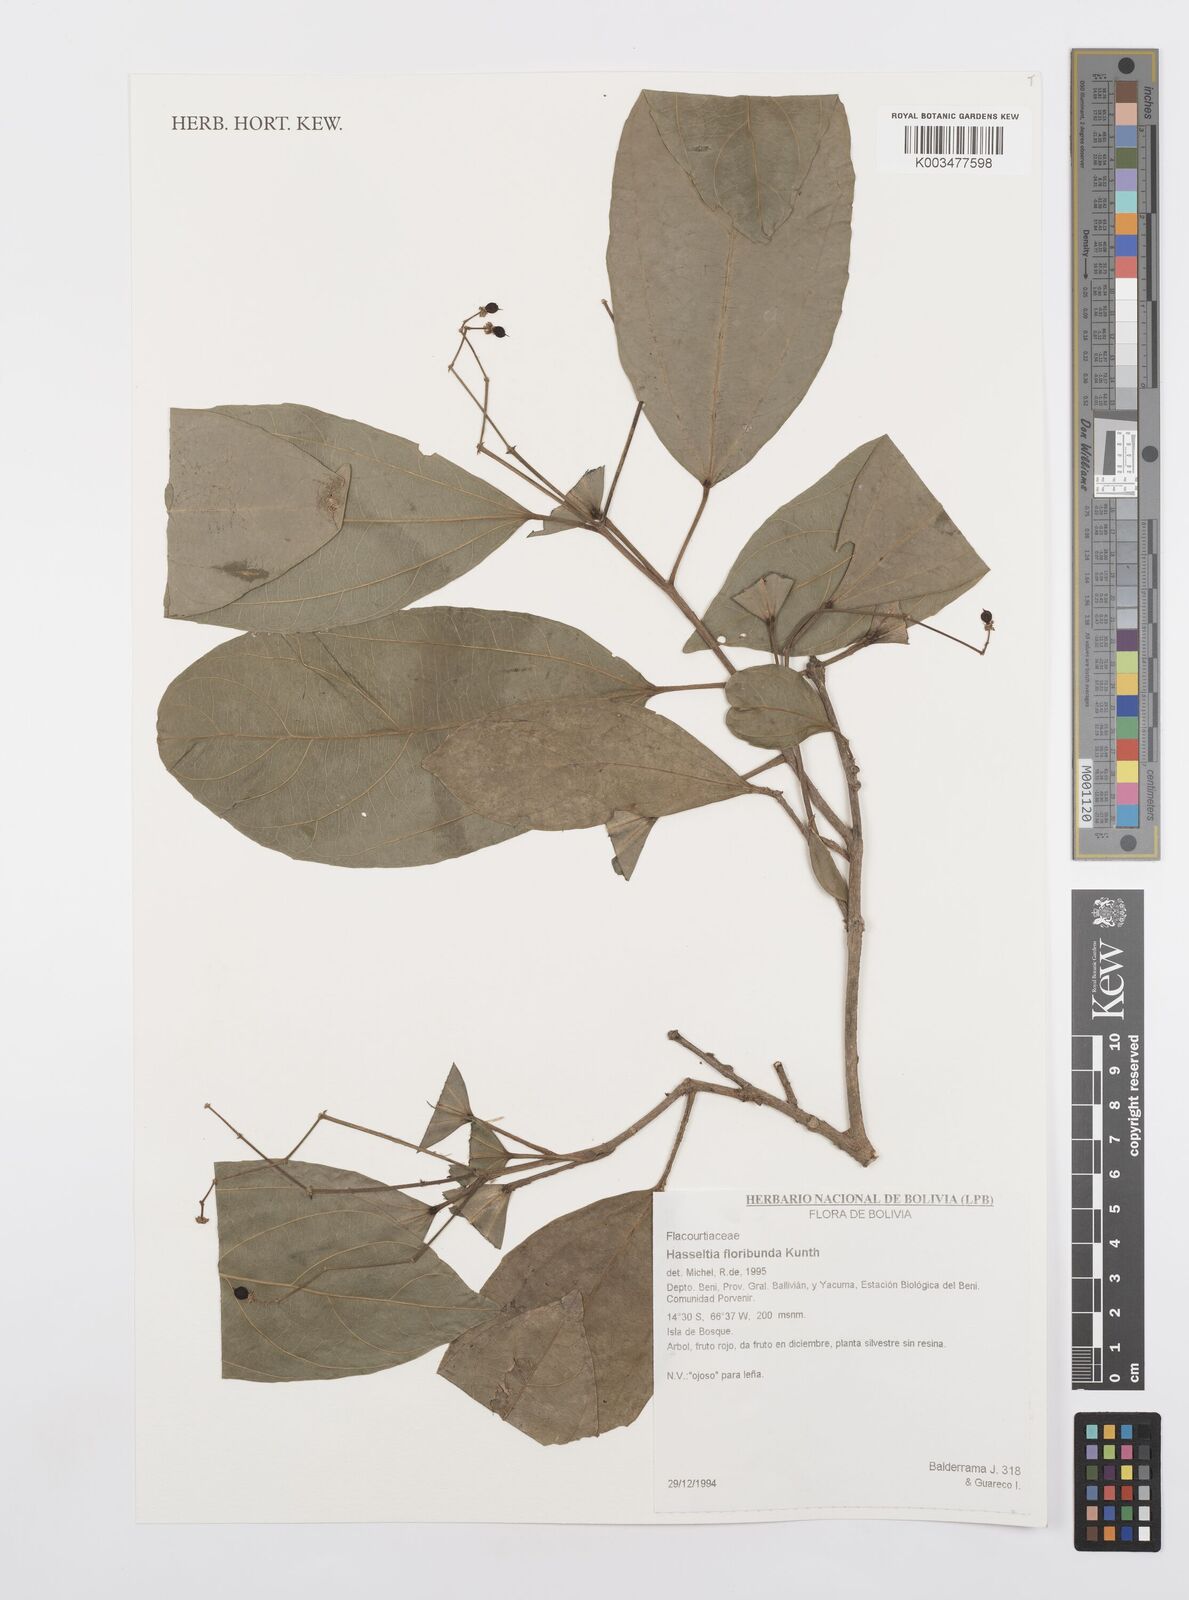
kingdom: Plantae
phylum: Tracheophyta
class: Magnoliopsida
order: Malpighiales
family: Salicaceae
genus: Hasseltia
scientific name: Hasseltia floribunda
